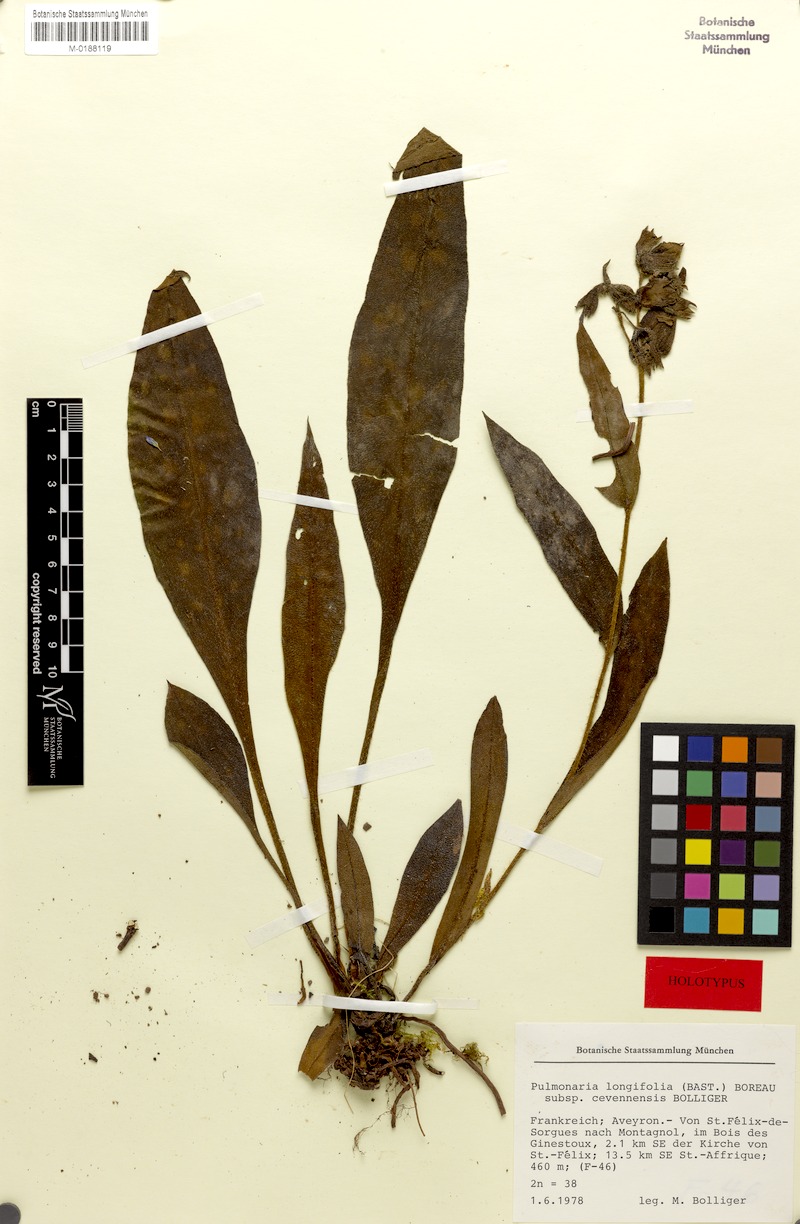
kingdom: Plantae
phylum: Tracheophyta
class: Magnoliopsida
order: Boraginales
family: Boraginaceae
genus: Pulmonaria
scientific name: Pulmonaria longifolia
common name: Narrow-leaved lungwort
